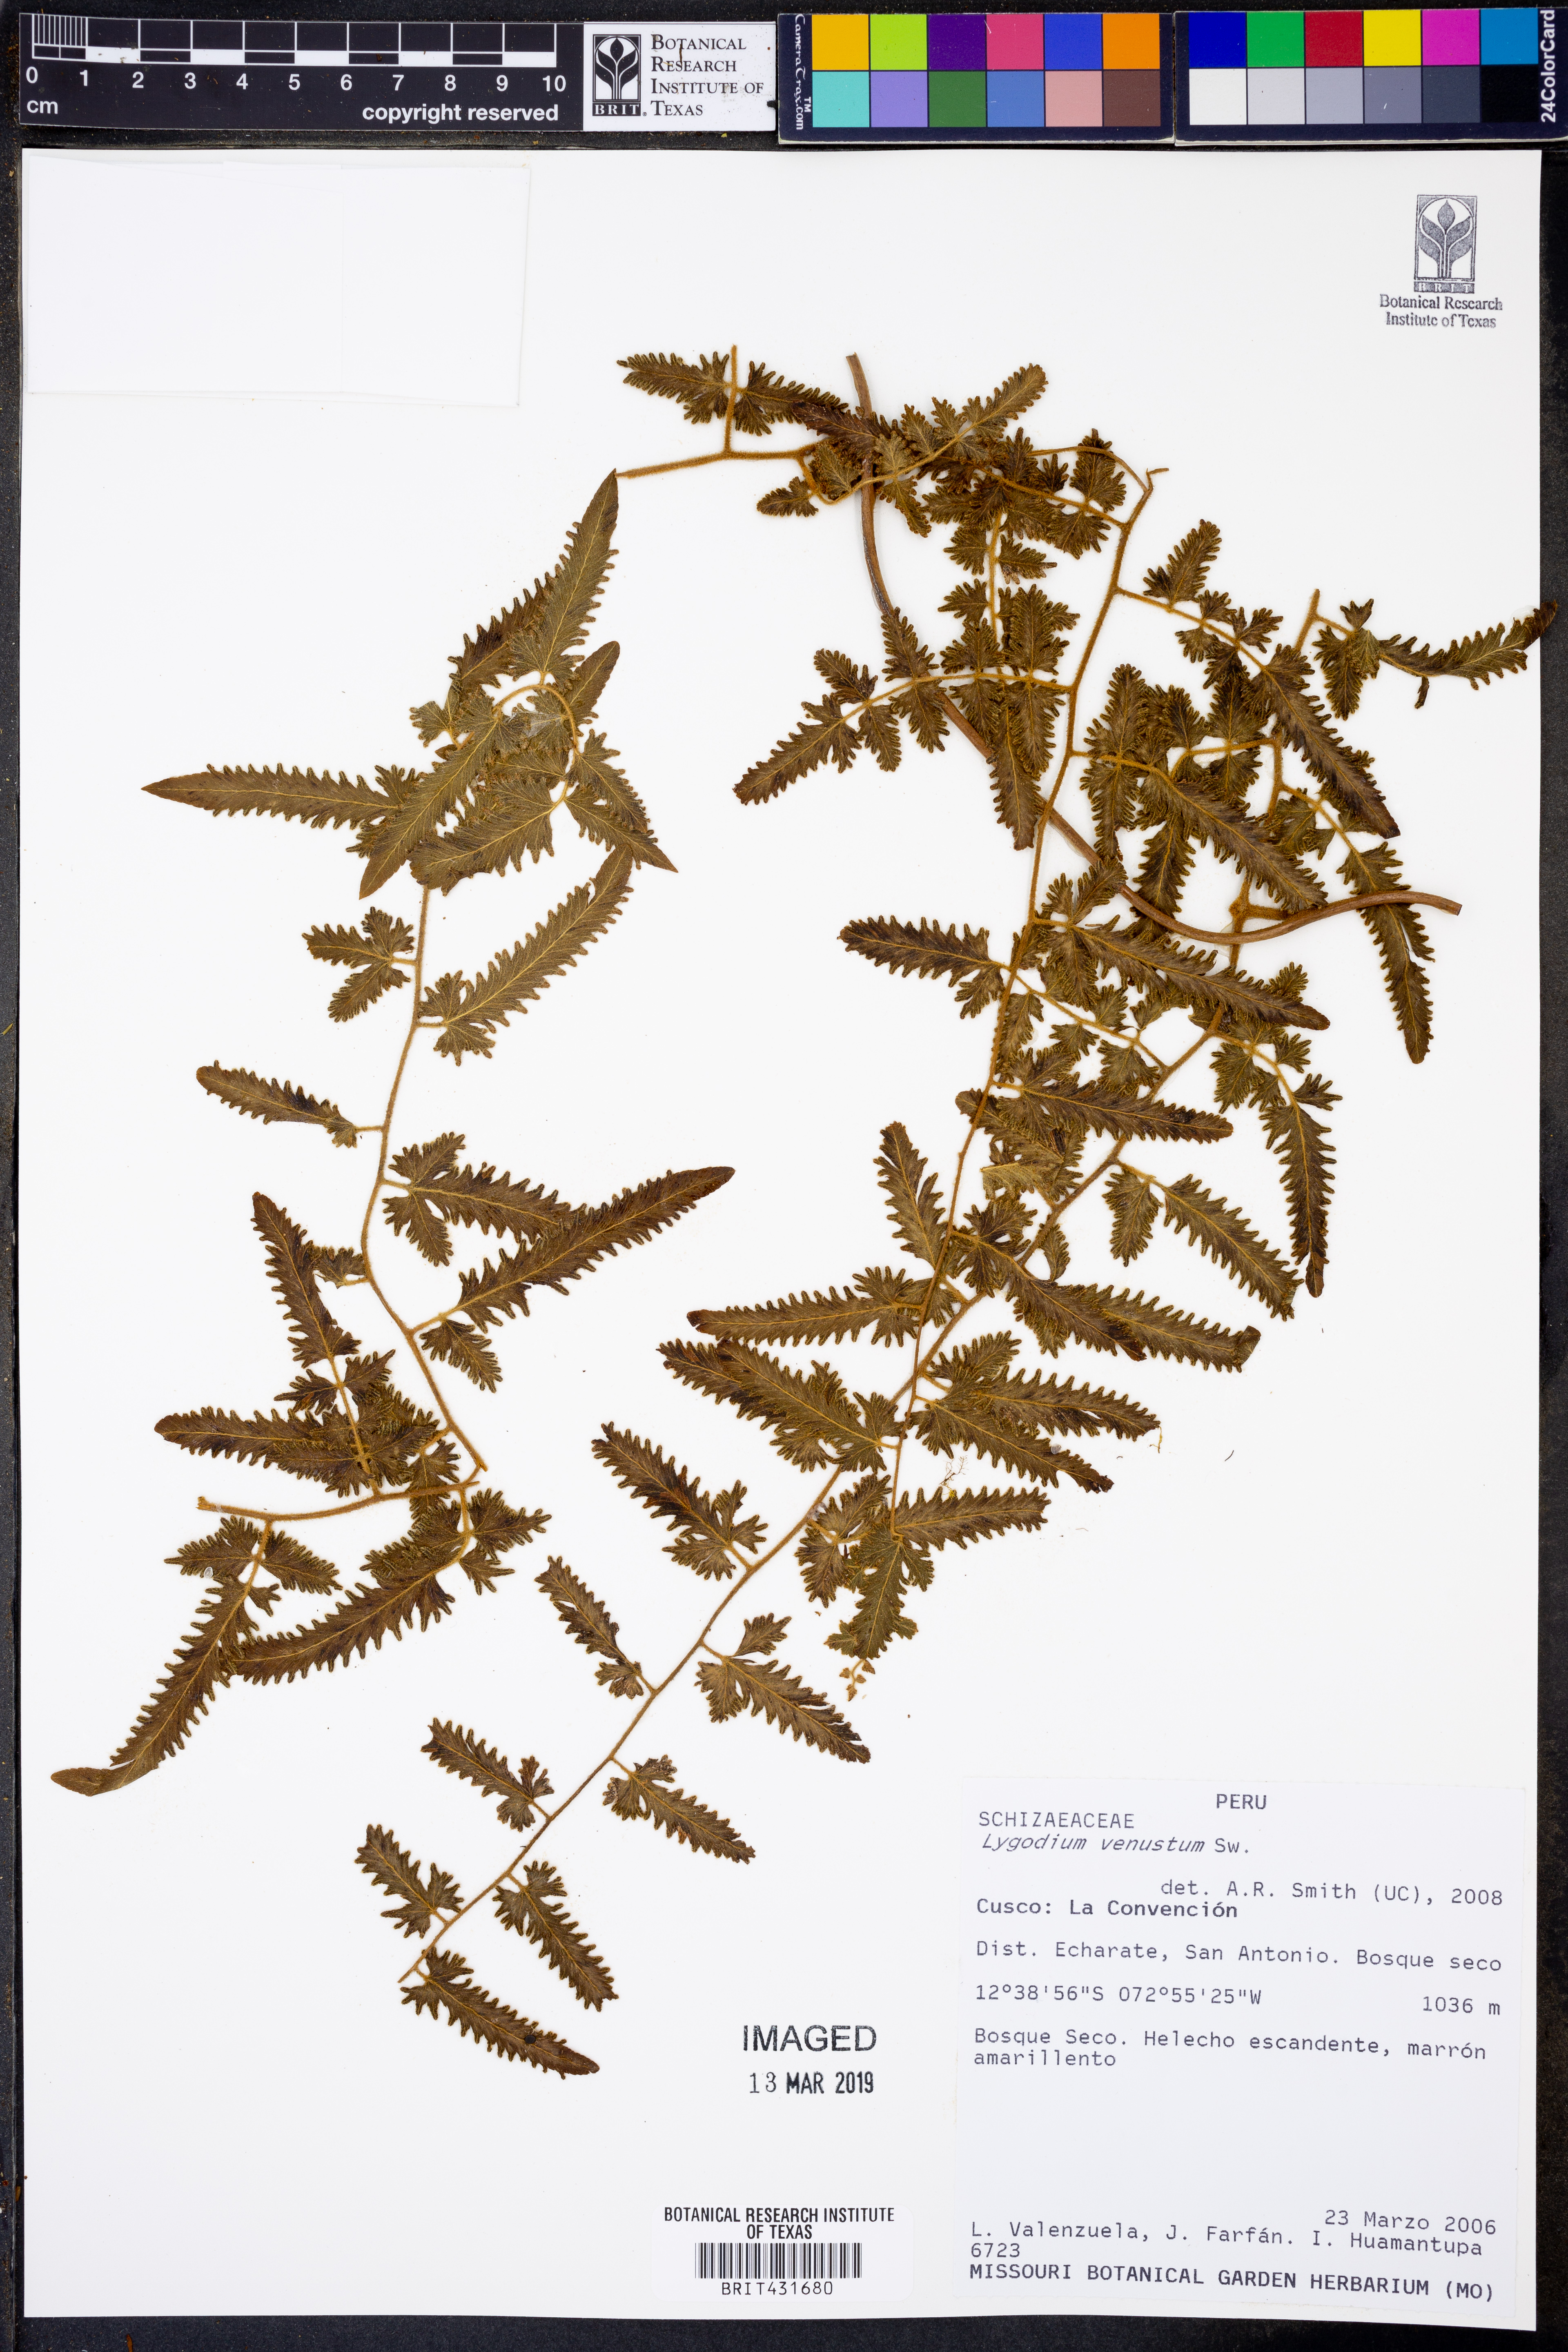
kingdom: Plantae
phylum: Tracheophyta
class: Polypodiopsida
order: Schizaeales
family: Lygodiaceae
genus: Lygodium
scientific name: Lygodium venustum
